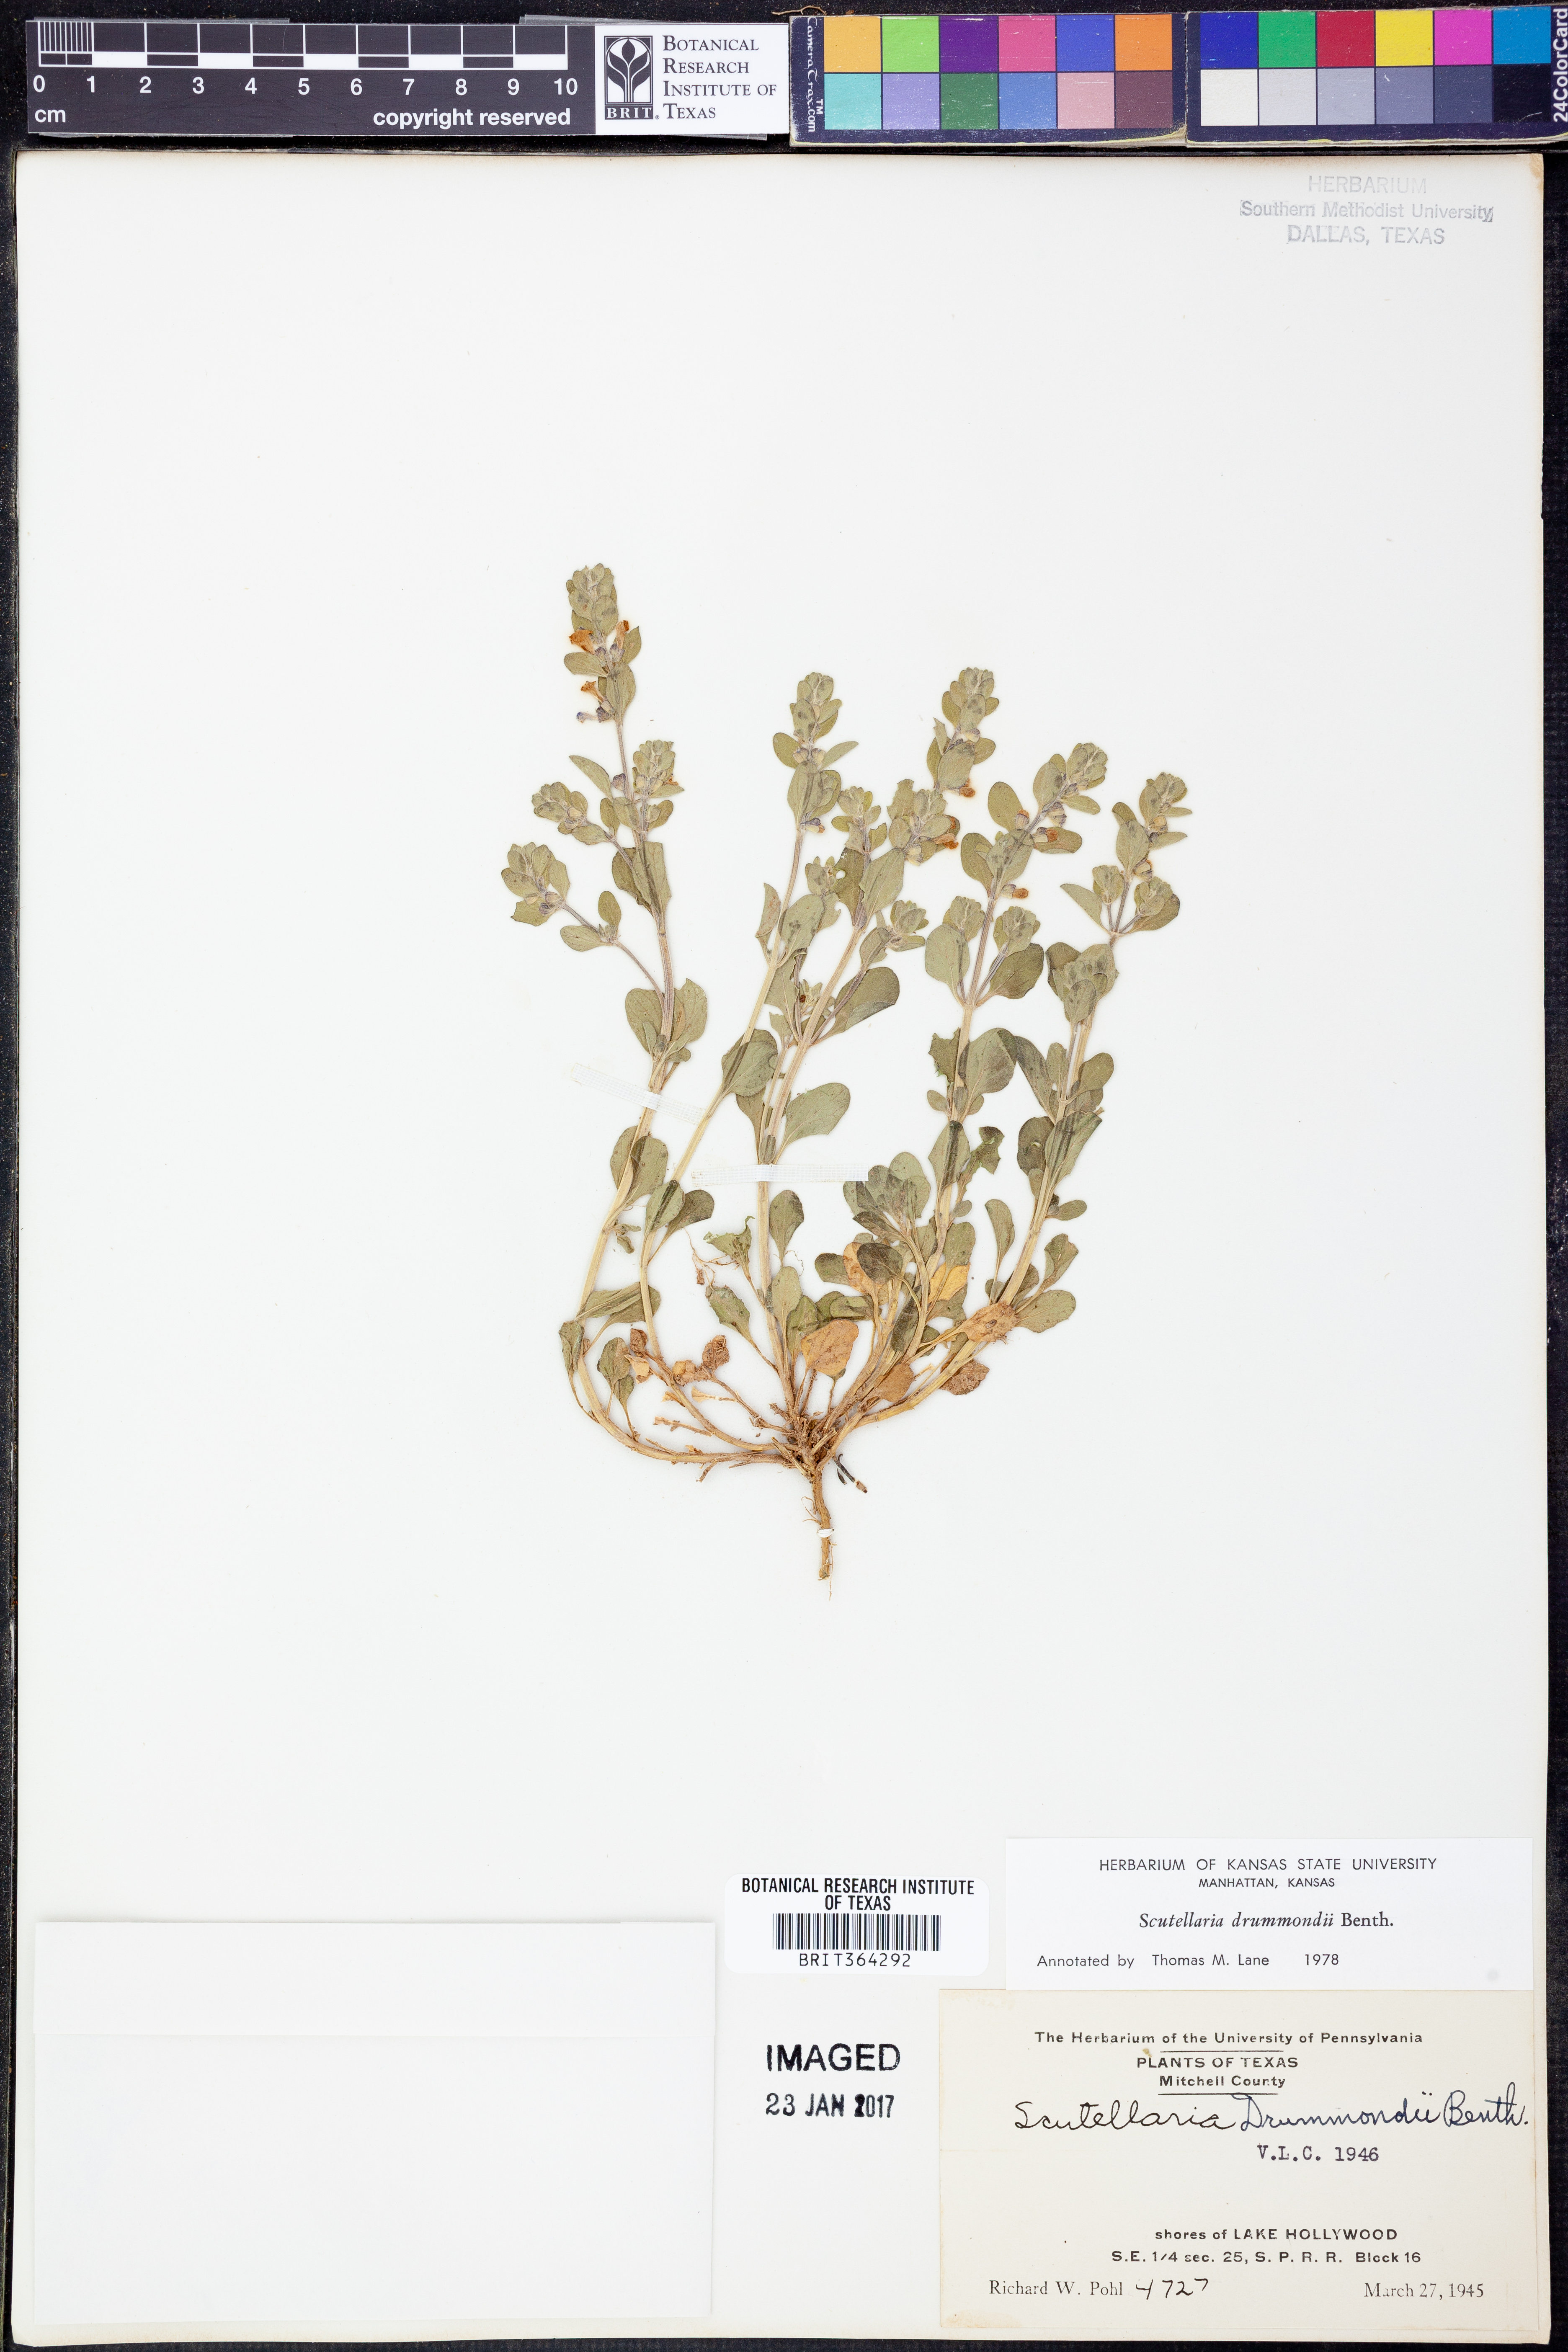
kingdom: Plantae
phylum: Tracheophyta
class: Magnoliopsida
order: Lamiales
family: Lamiaceae
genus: Scutellaria
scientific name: Scutellaria drummondii
